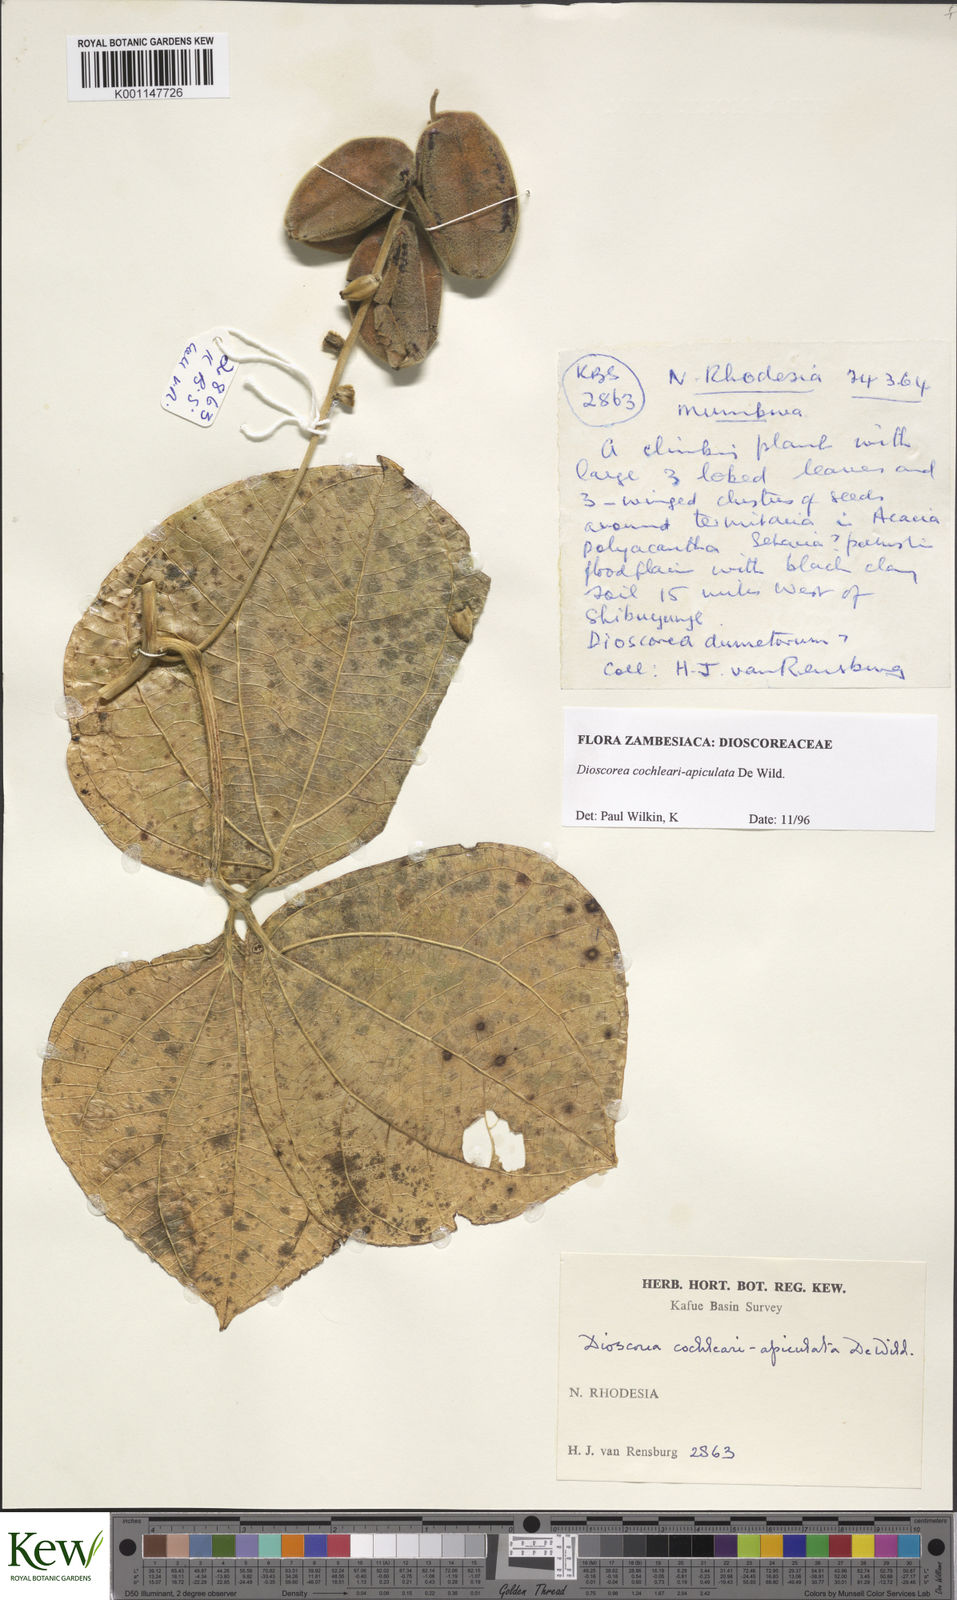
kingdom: Plantae
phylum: Tracheophyta
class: Liliopsida
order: Dioscoreales
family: Dioscoreaceae
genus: Dioscorea
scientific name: Dioscorea cochleariapiculata
